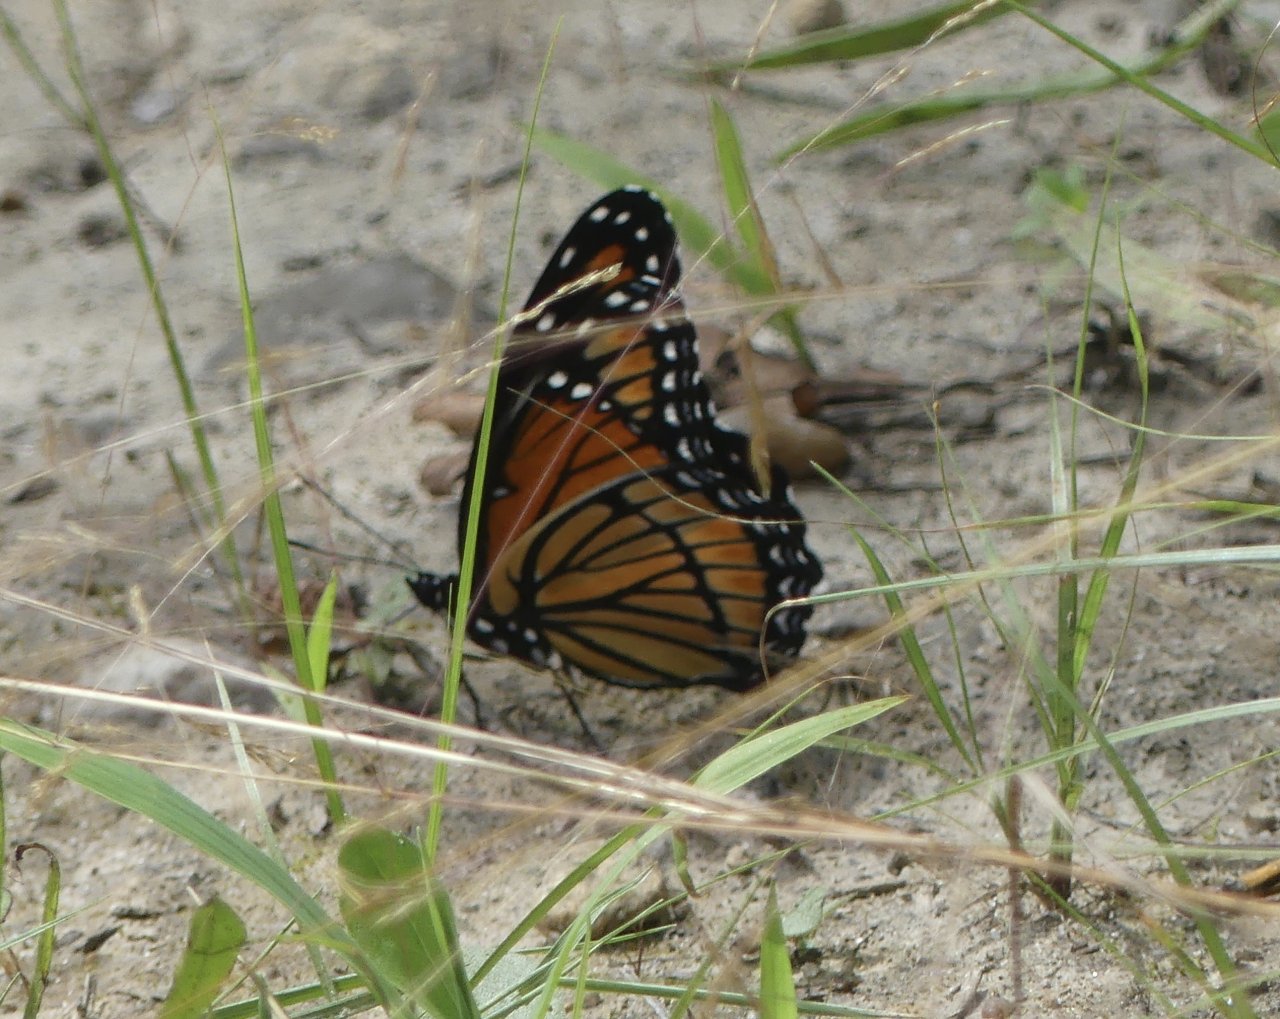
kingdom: Animalia
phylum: Arthropoda
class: Insecta
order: Lepidoptera
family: Nymphalidae
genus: Limenitis
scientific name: Limenitis archippus
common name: Viceroy
